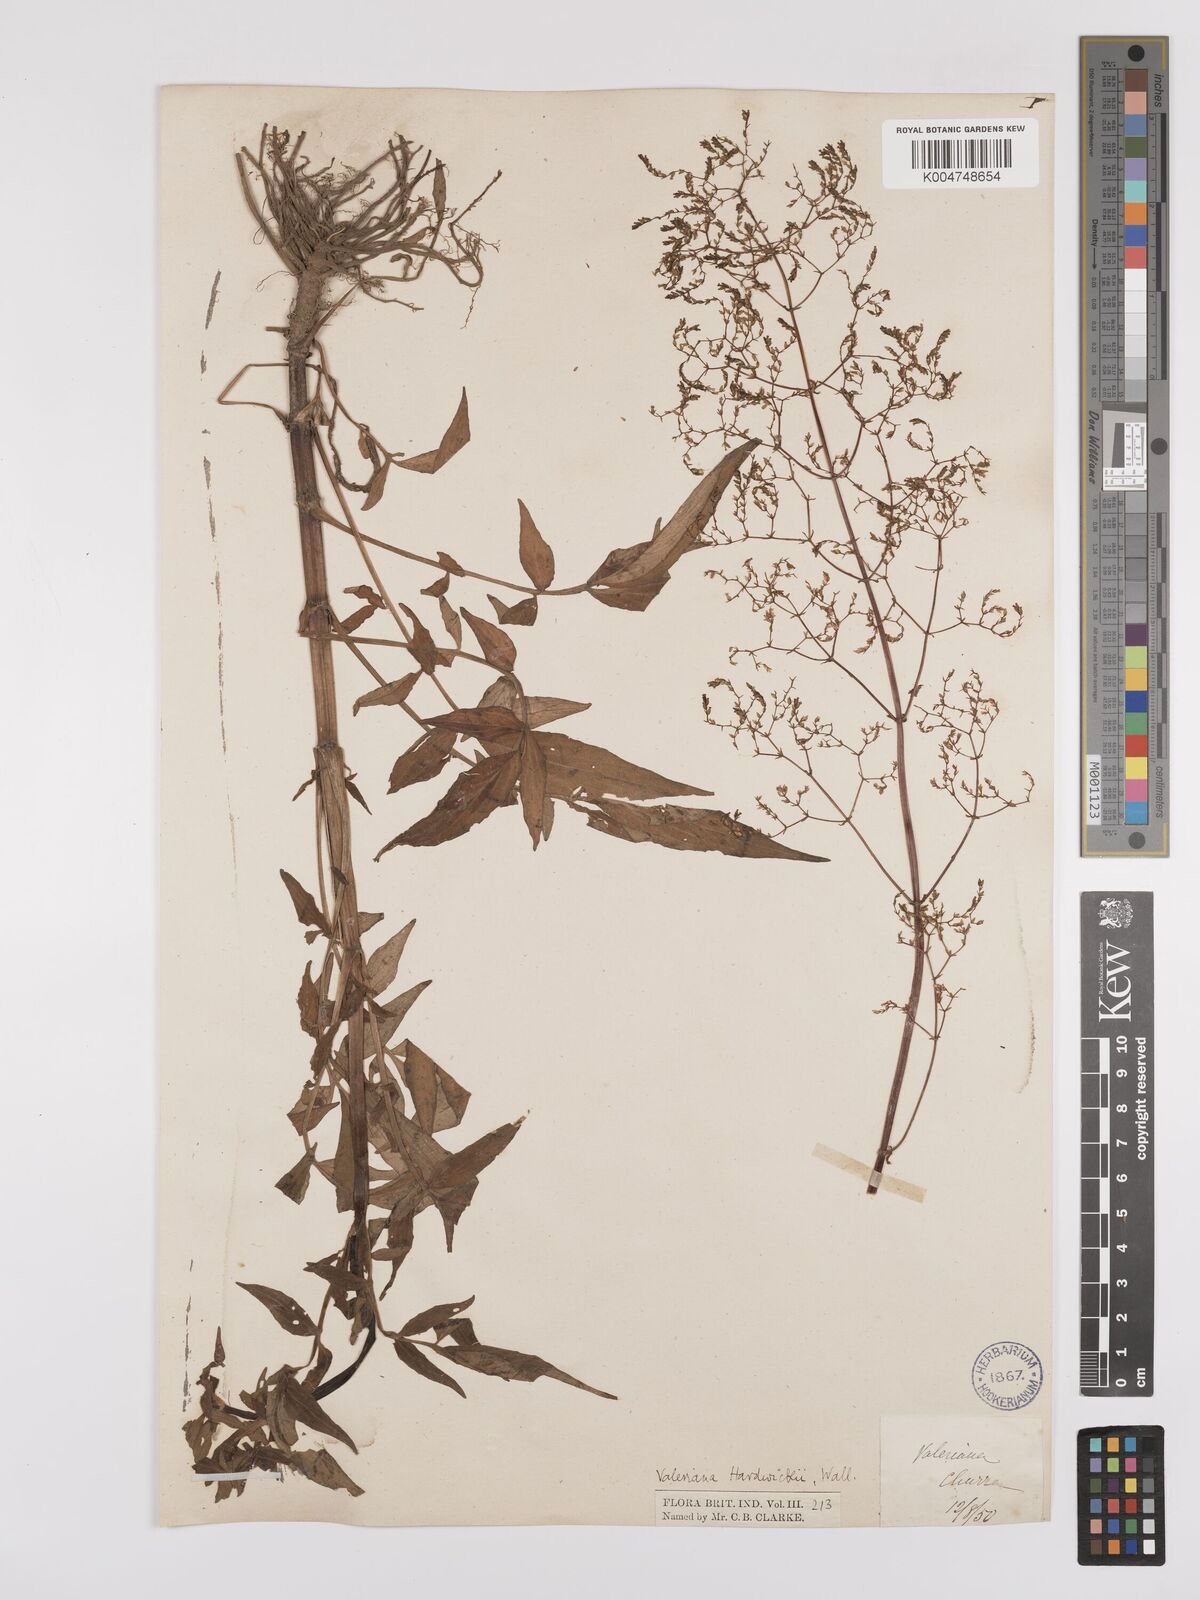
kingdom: Plantae
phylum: Tracheophyta
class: Magnoliopsida
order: Dipsacales
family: Caprifoliaceae
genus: Valeriana
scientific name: Valeriana hardwickei
